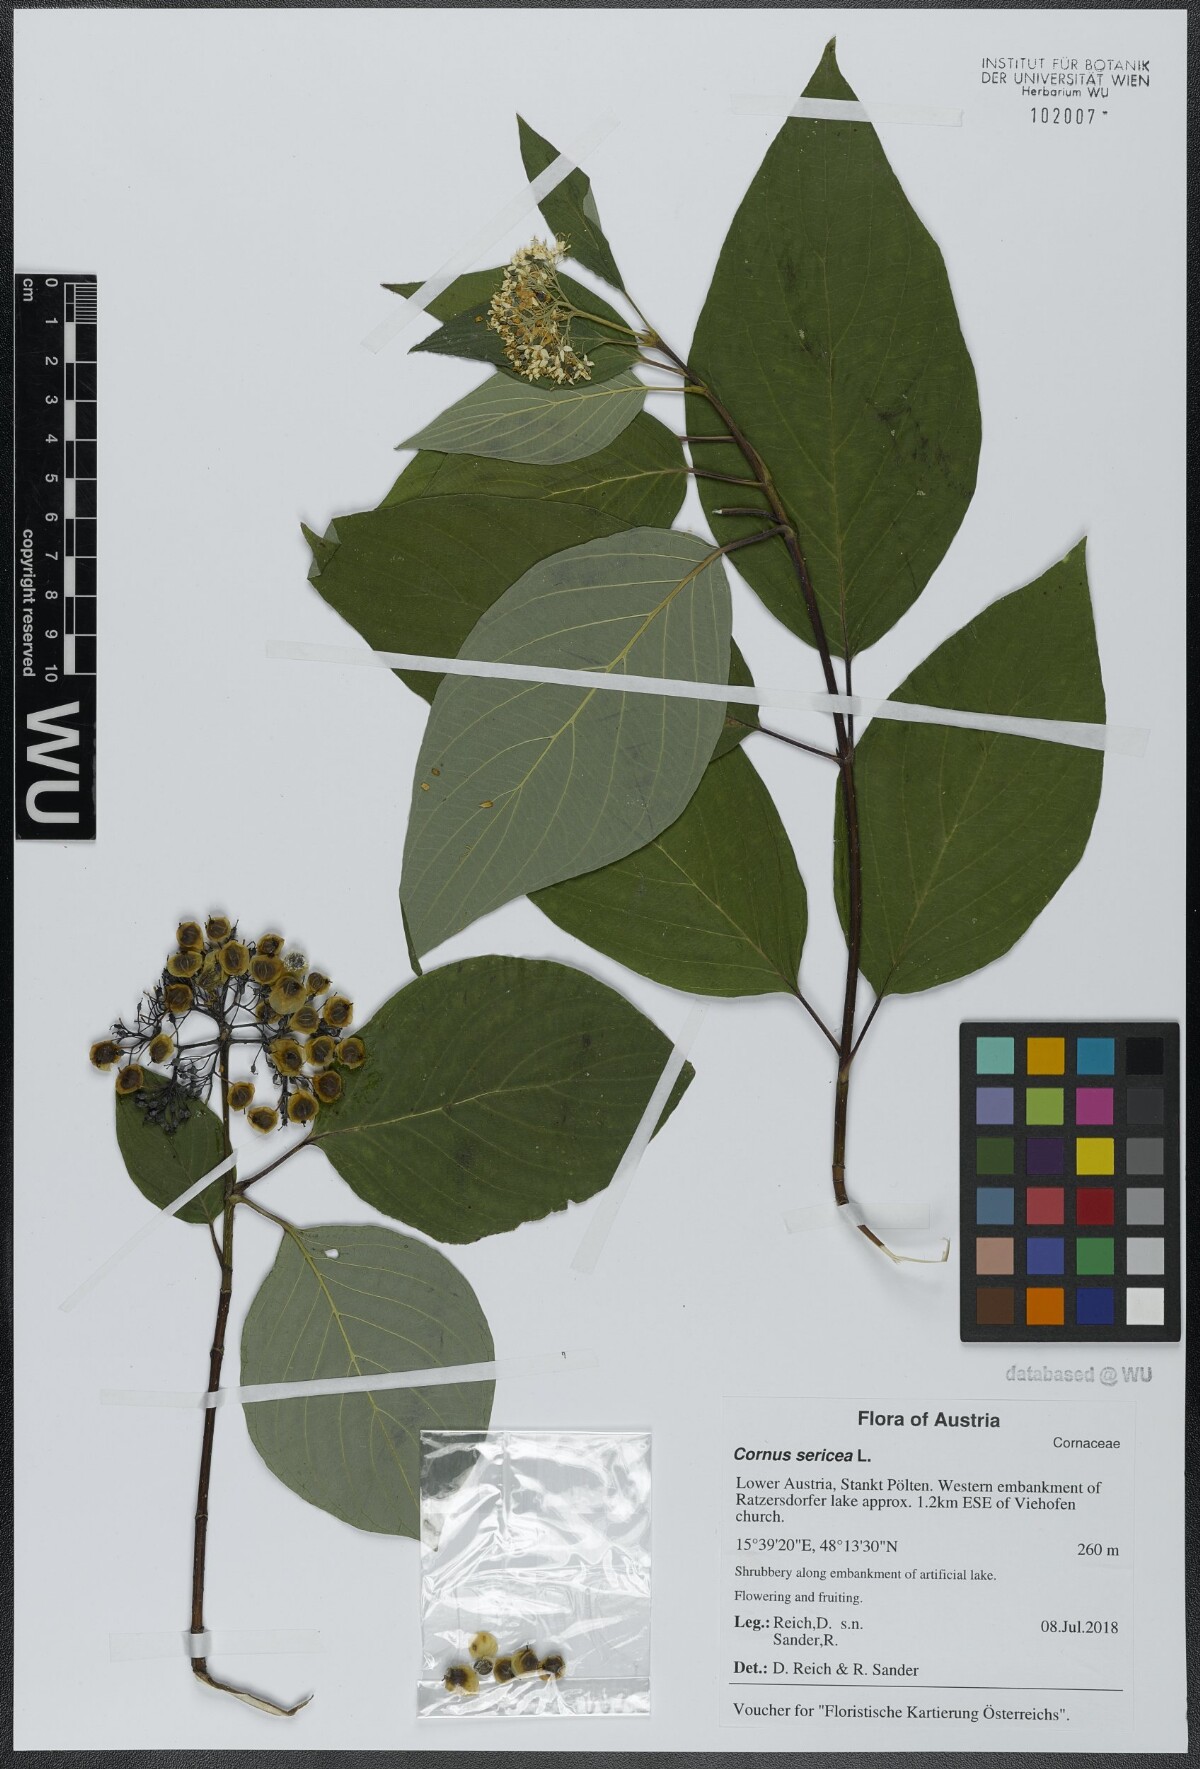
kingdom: Plantae
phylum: Tracheophyta
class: Magnoliopsida
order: Cornales
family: Cornaceae
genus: Cornus
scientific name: Cornus sericea
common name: Red-osier dogwood
